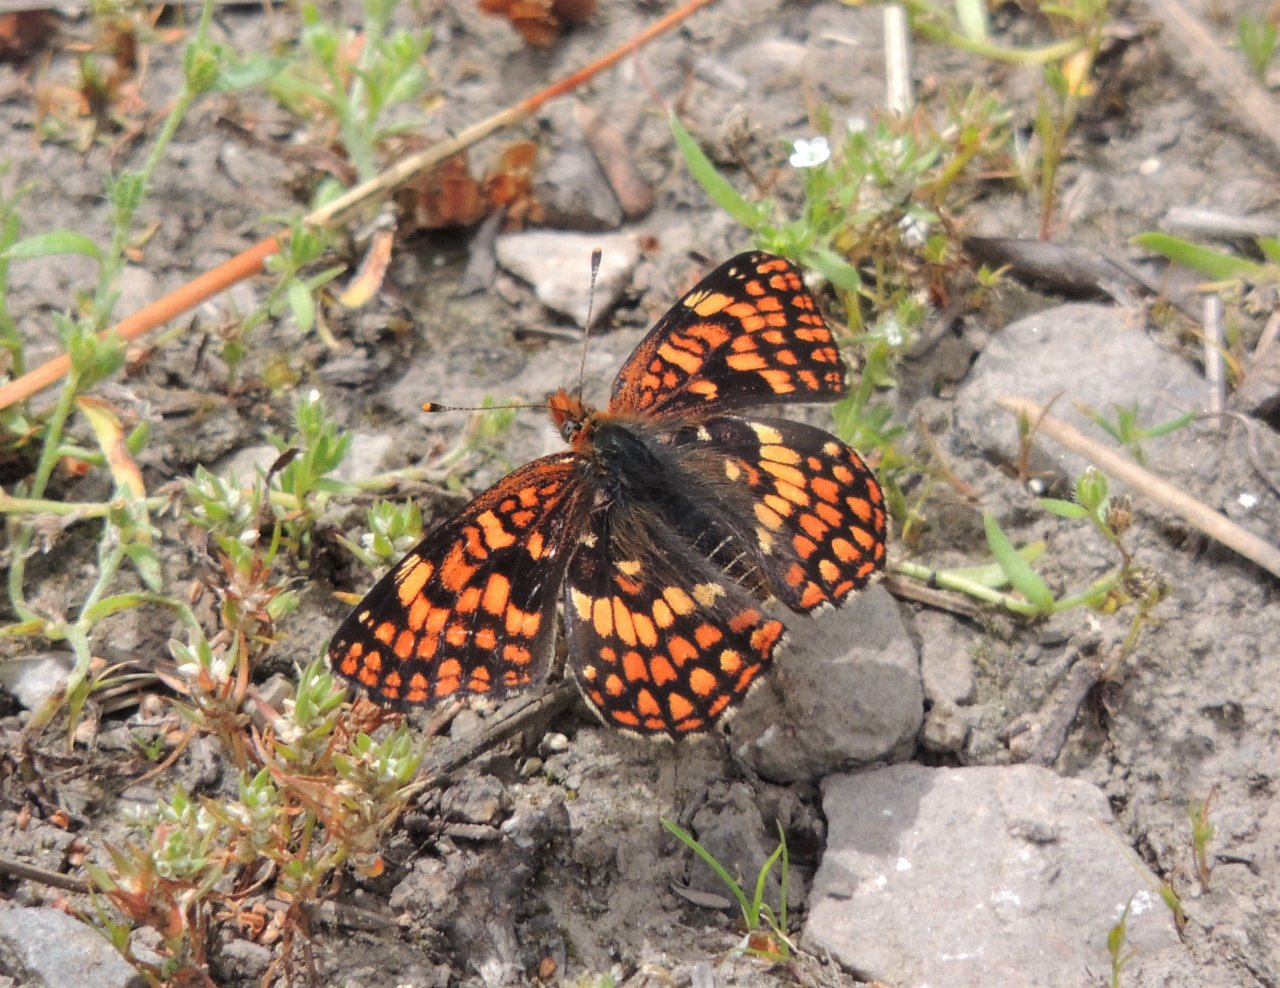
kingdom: Animalia
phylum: Arthropoda
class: Insecta
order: Lepidoptera
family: Nymphalidae
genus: Chlosyne
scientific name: Chlosyne palla
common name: Northern Checkerspot
